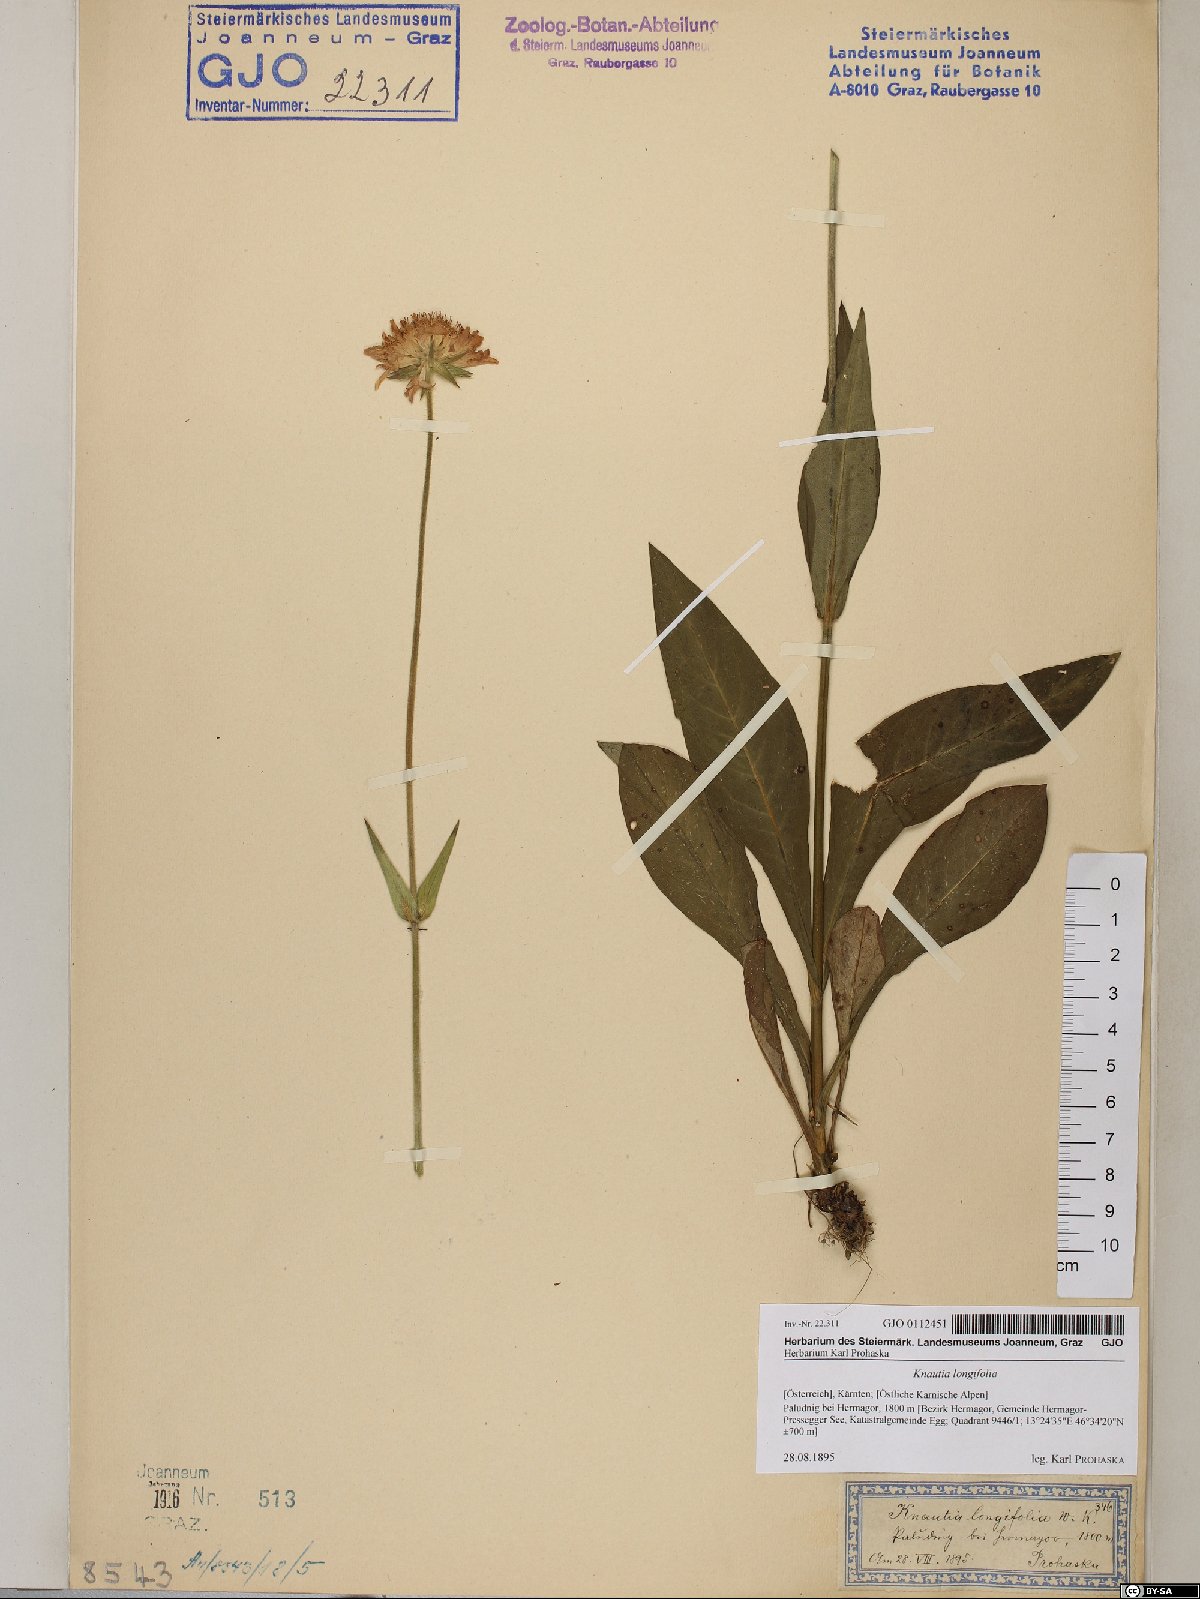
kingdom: Plantae
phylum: Tracheophyta
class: Magnoliopsida
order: Dipsacales
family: Caprifoliaceae
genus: Knautia
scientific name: Knautia longifolia
